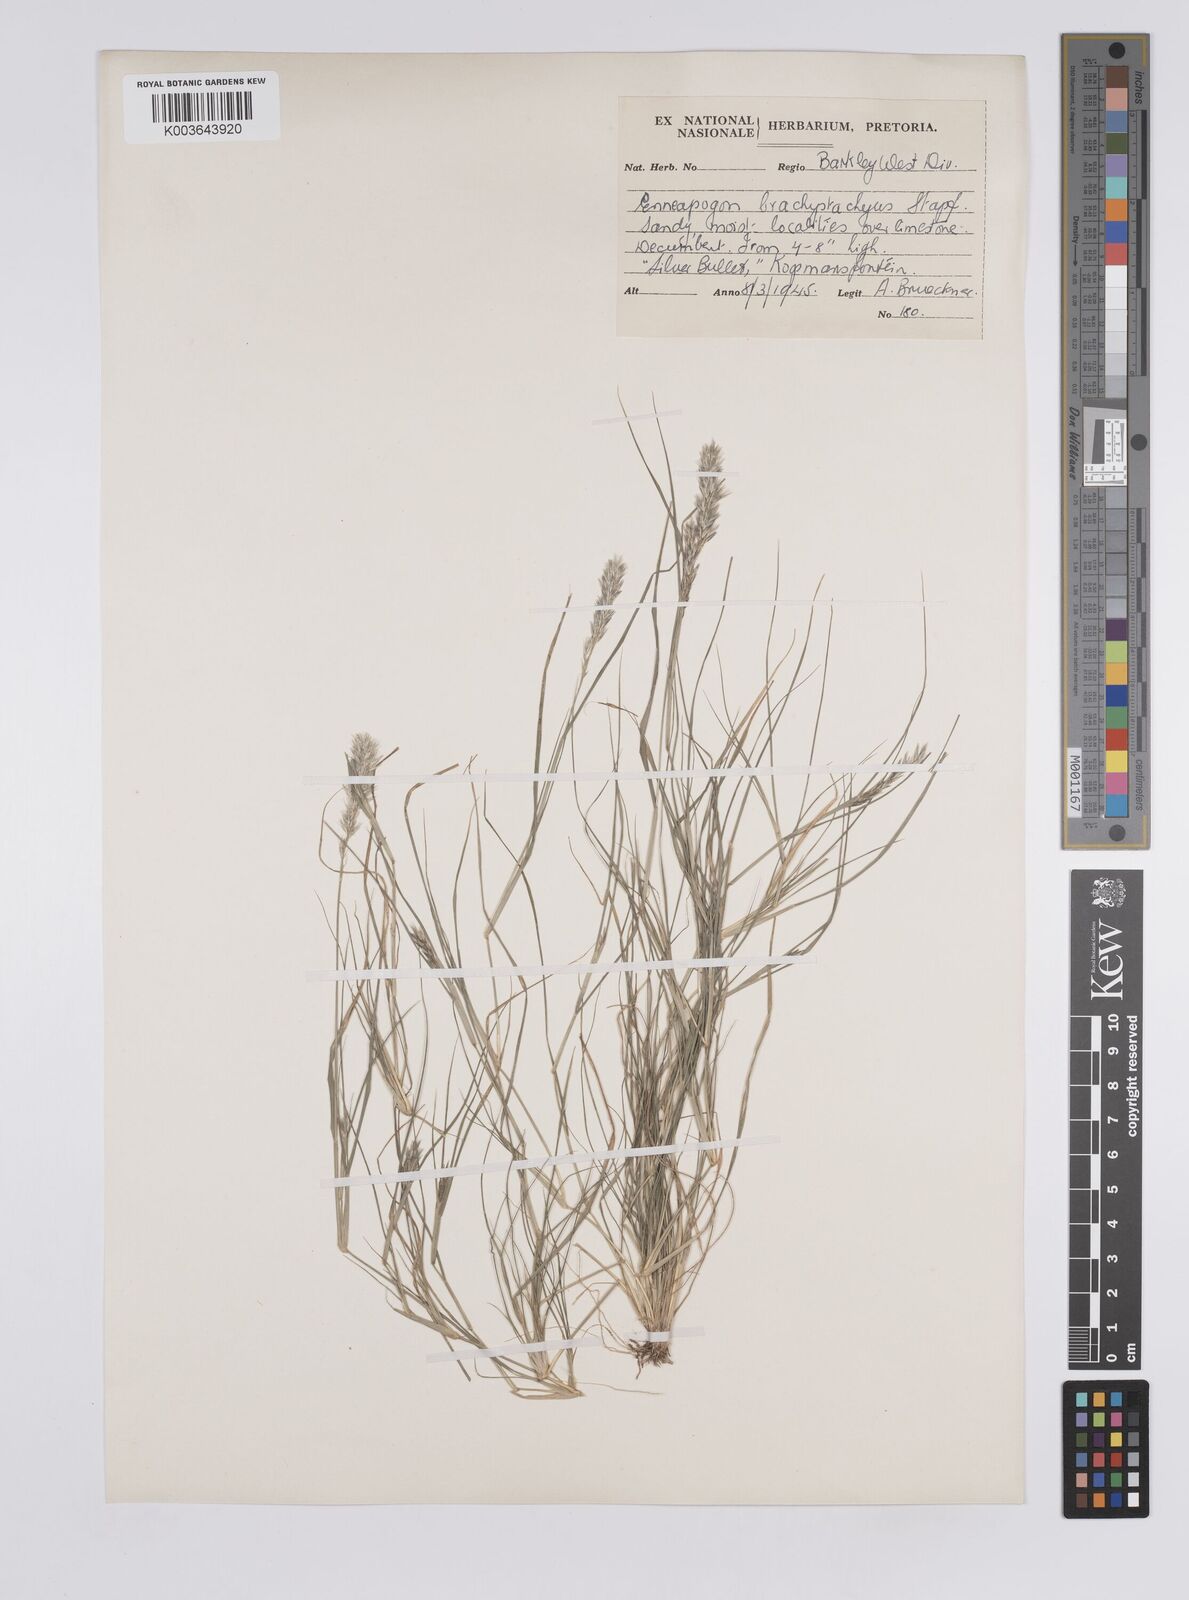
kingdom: Plantae
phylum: Tracheophyta
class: Liliopsida
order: Poales
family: Poaceae
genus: Enneapogon
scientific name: Enneapogon desvauxii
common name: Feather pappus grass
